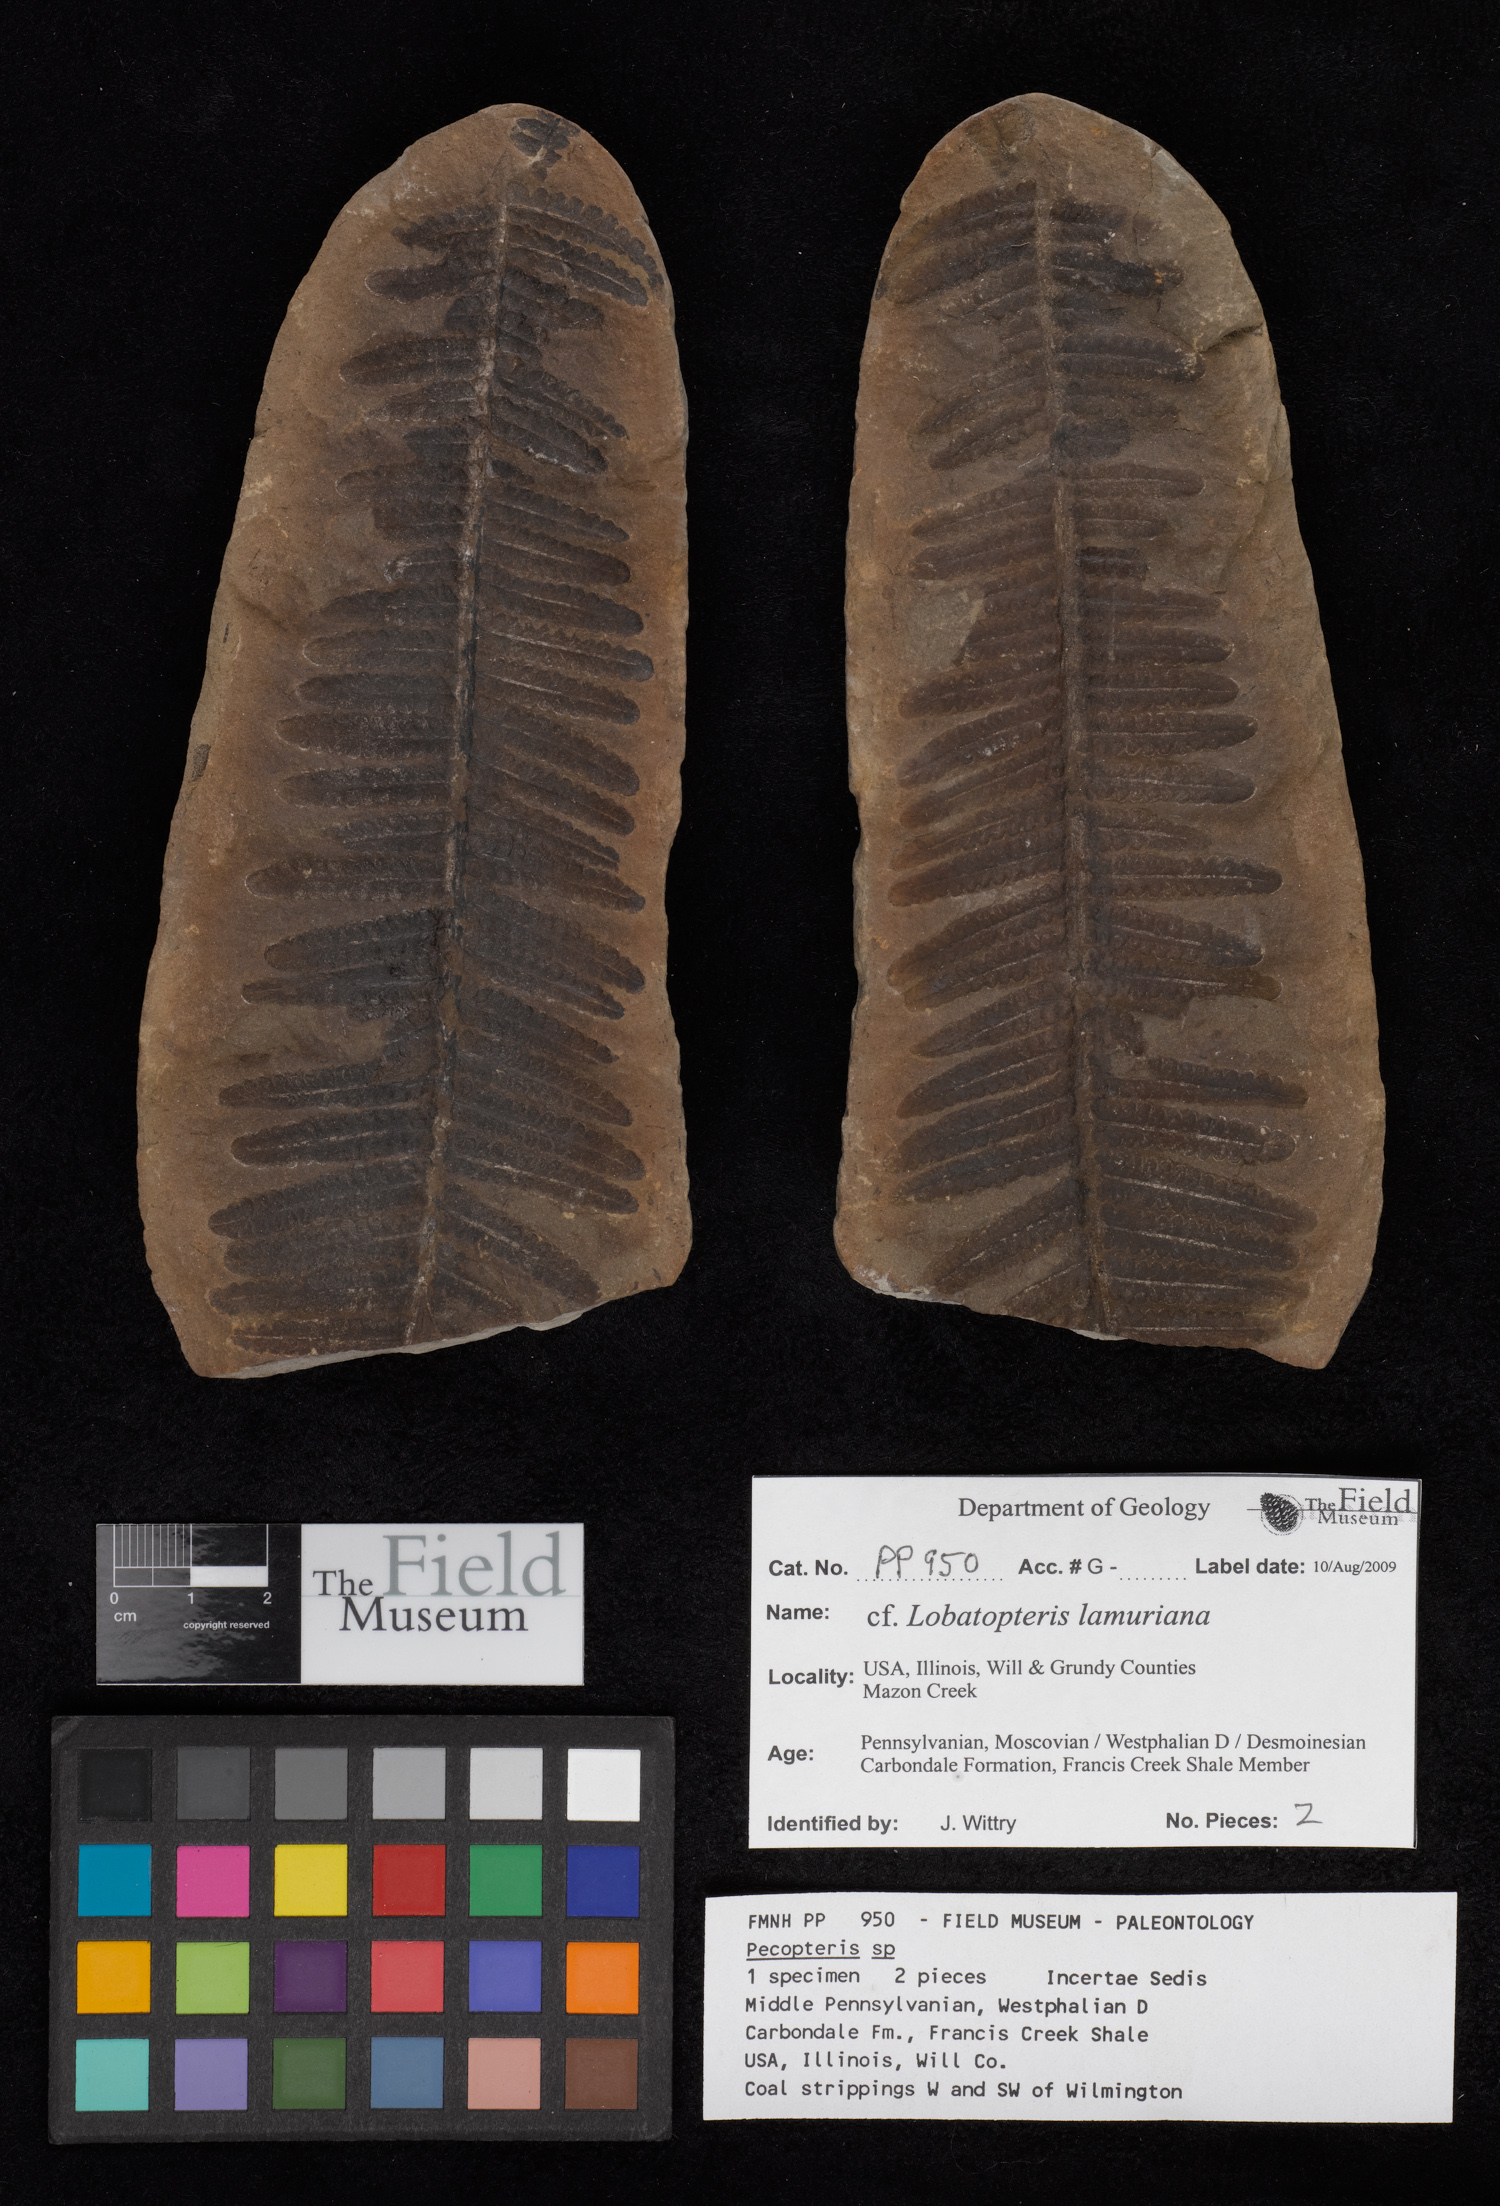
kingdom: Plantae
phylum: Tracheophyta
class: Polypodiopsida
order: Marattiales
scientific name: Marattiales
